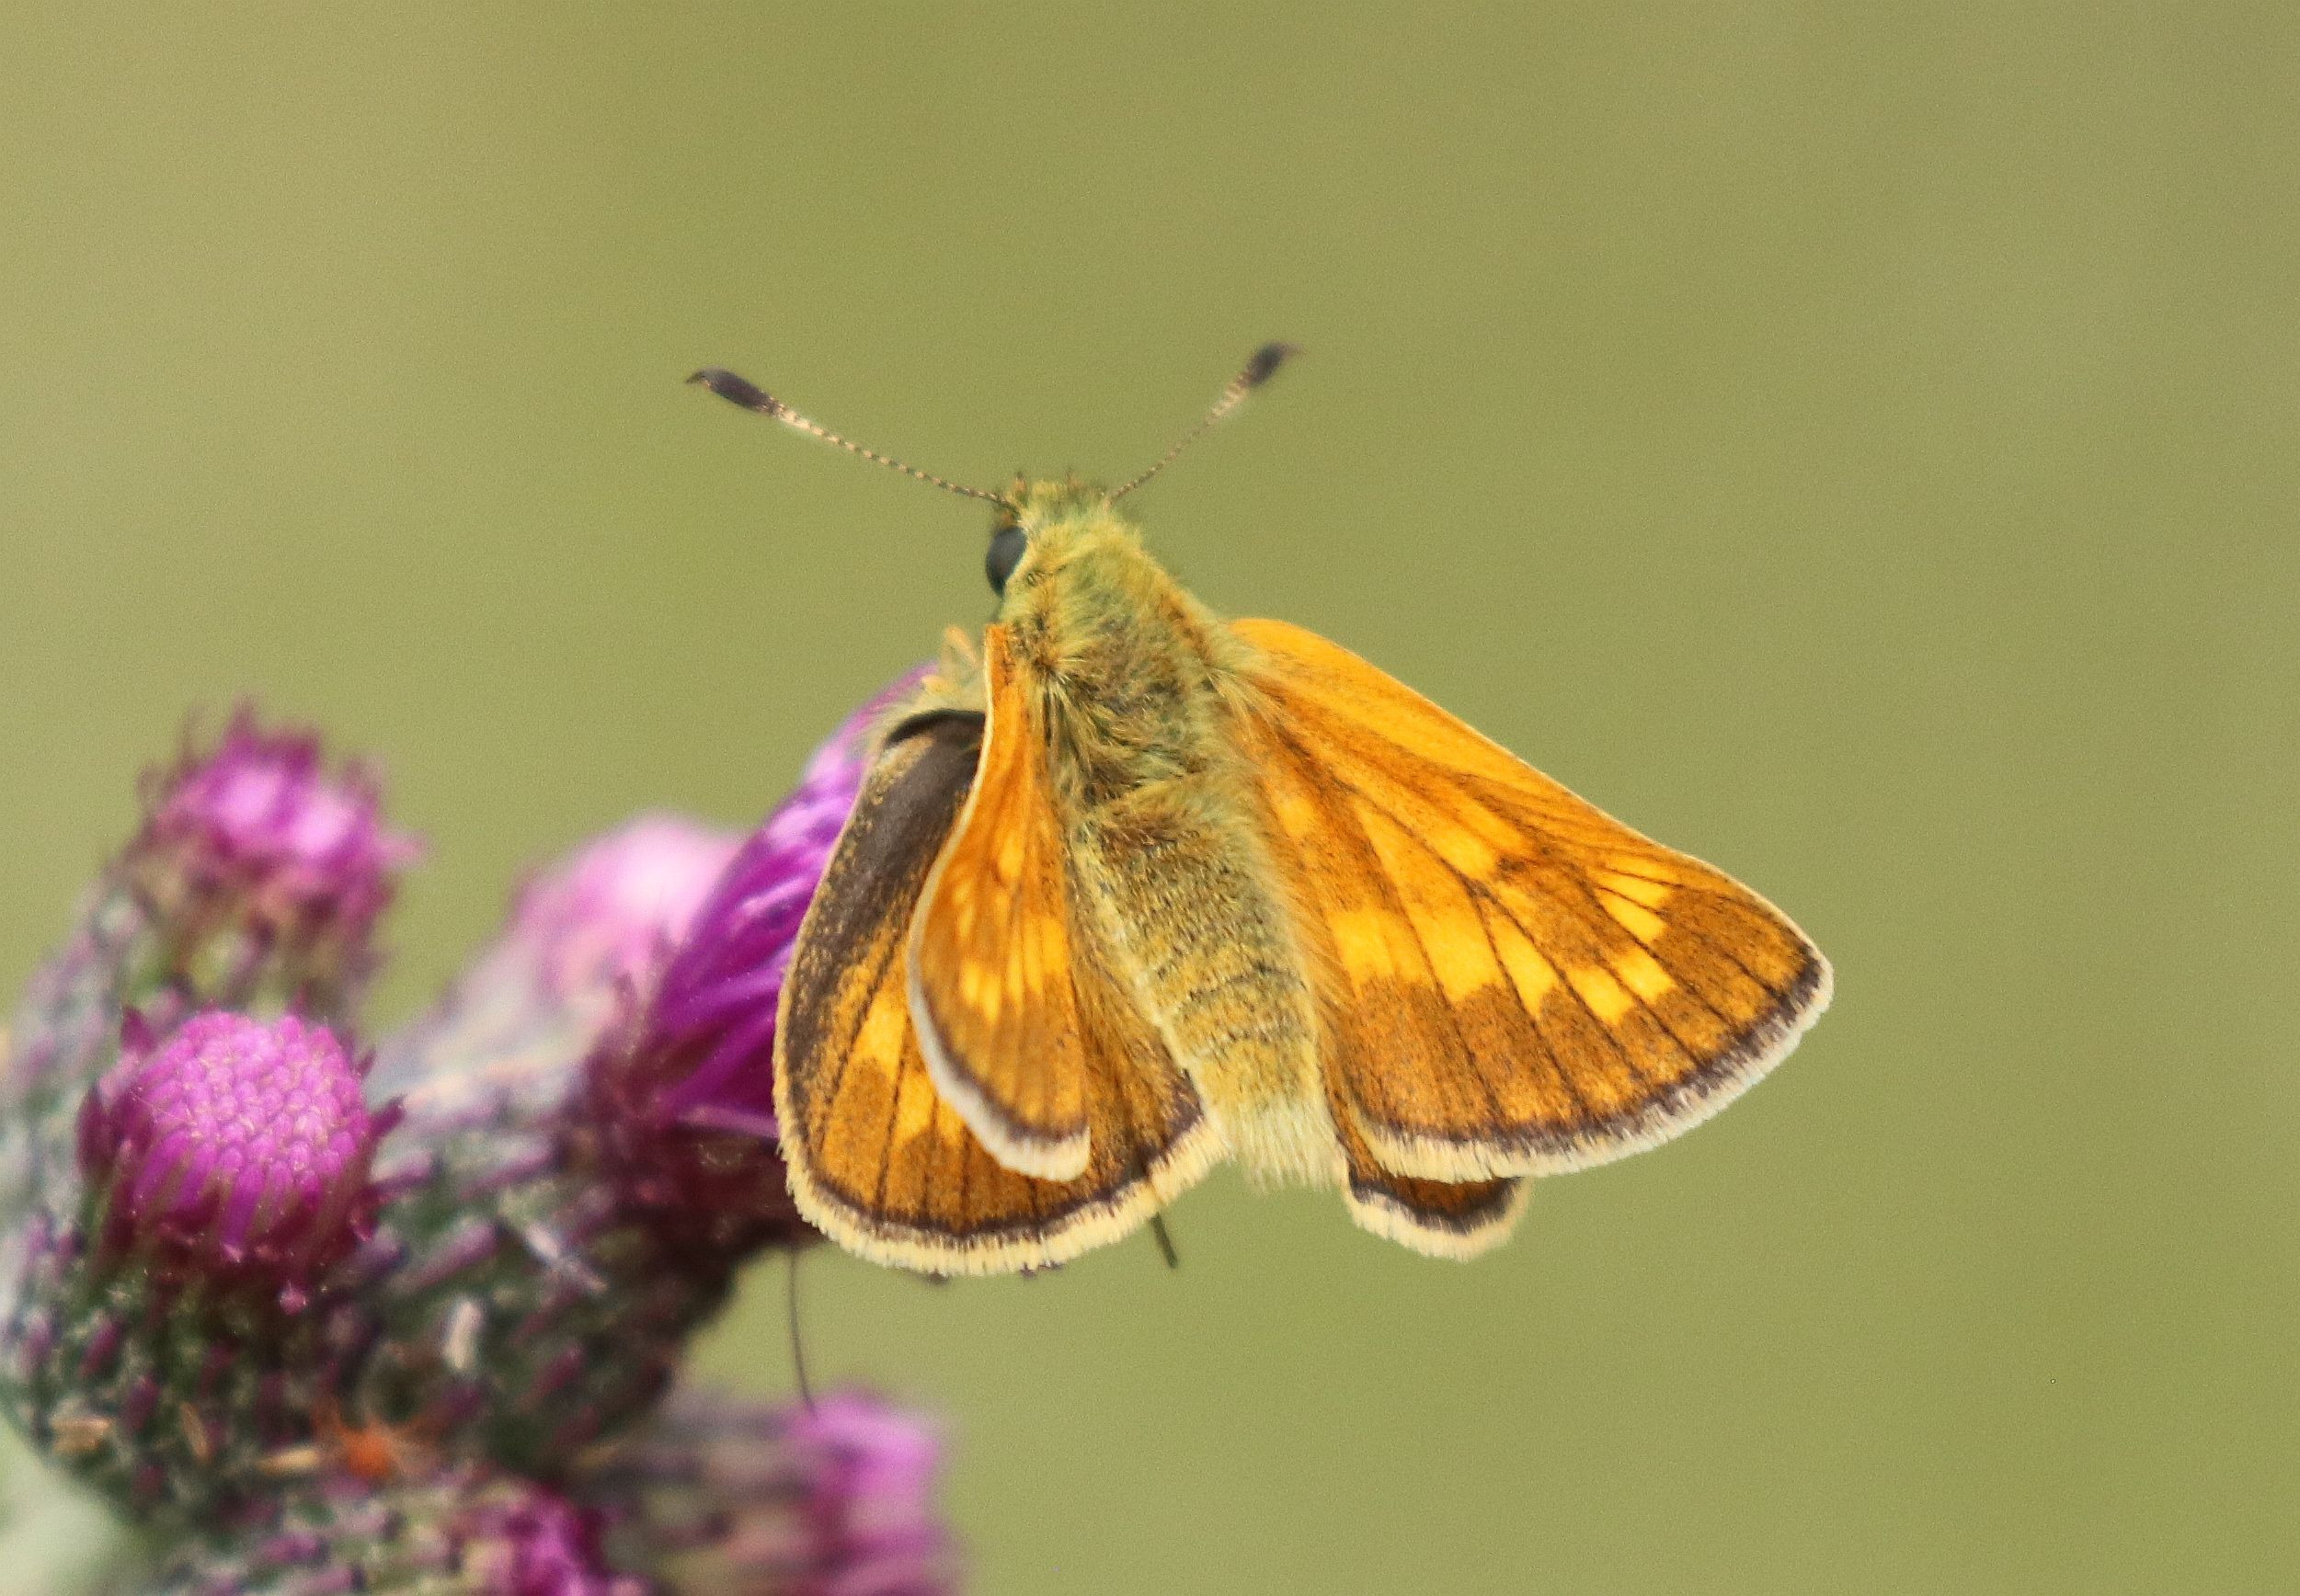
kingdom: Animalia
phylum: Arthropoda
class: Insecta
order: Lepidoptera
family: Hesperiidae
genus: Ochlodes
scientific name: Ochlodes venata
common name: Stor bredpande
